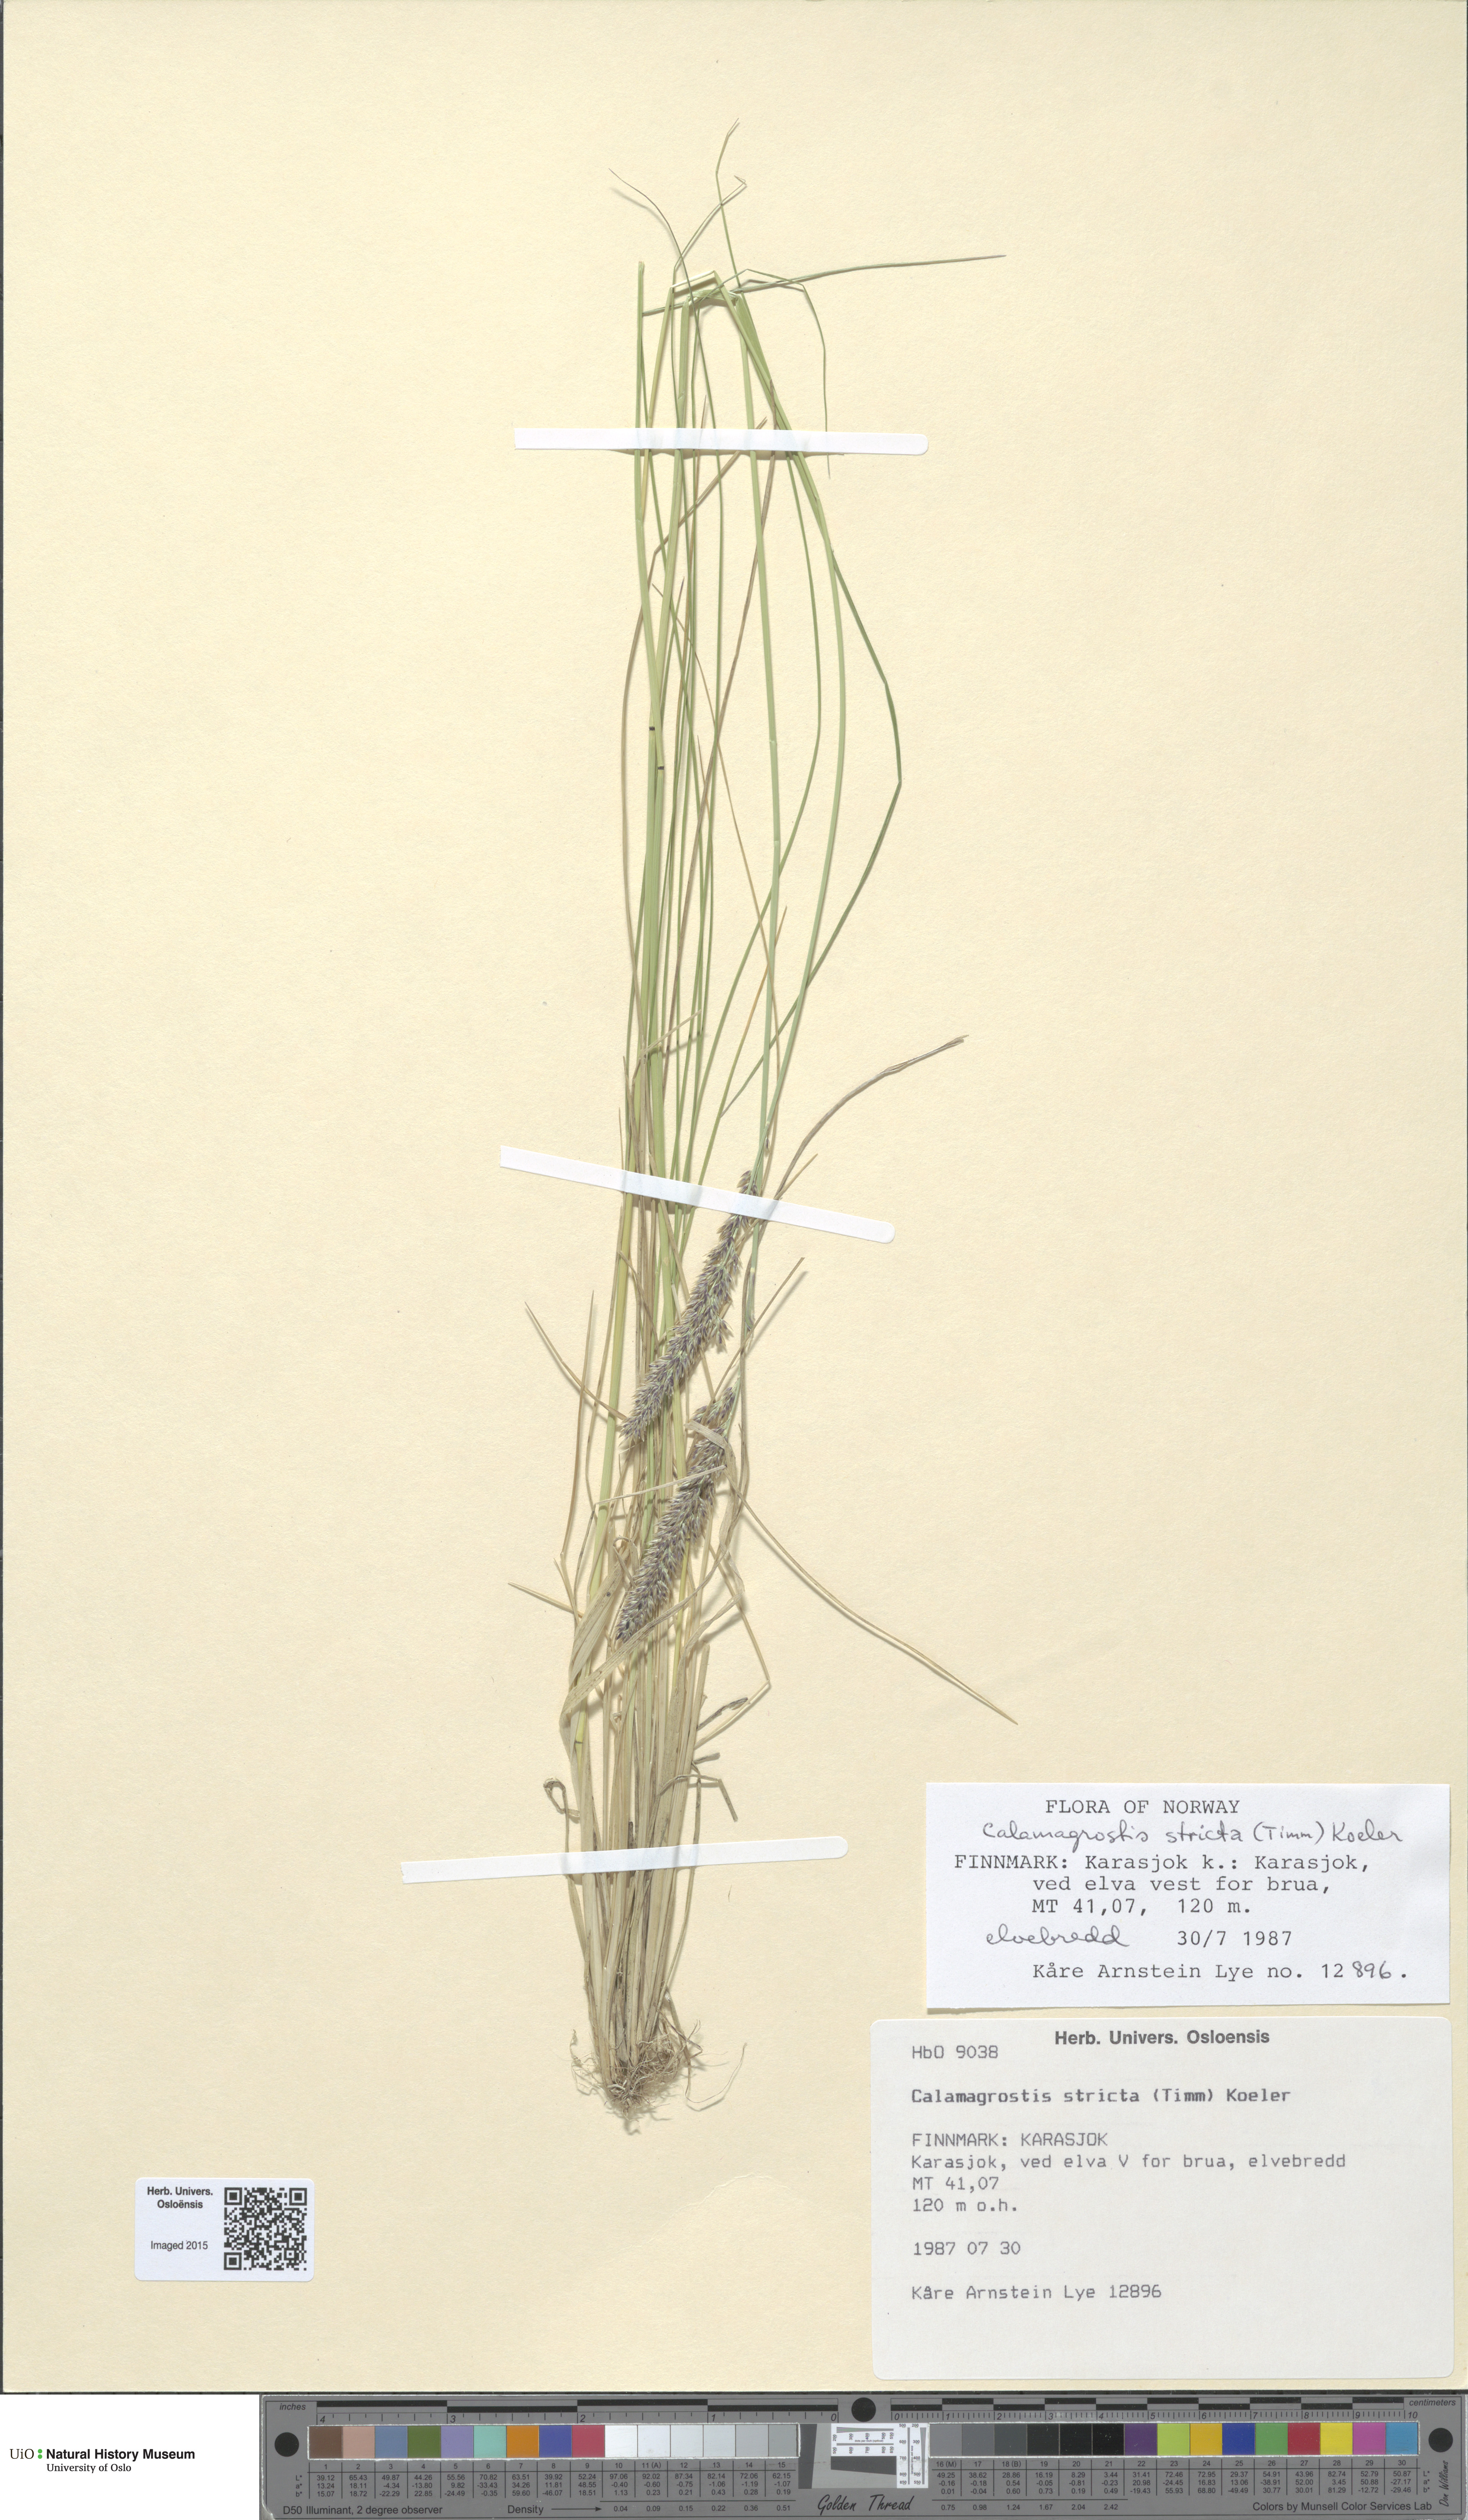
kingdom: Plantae
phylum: Tracheophyta
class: Liliopsida
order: Poales
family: Poaceae
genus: Achnatherum
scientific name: Achnatherum calamagrostis
